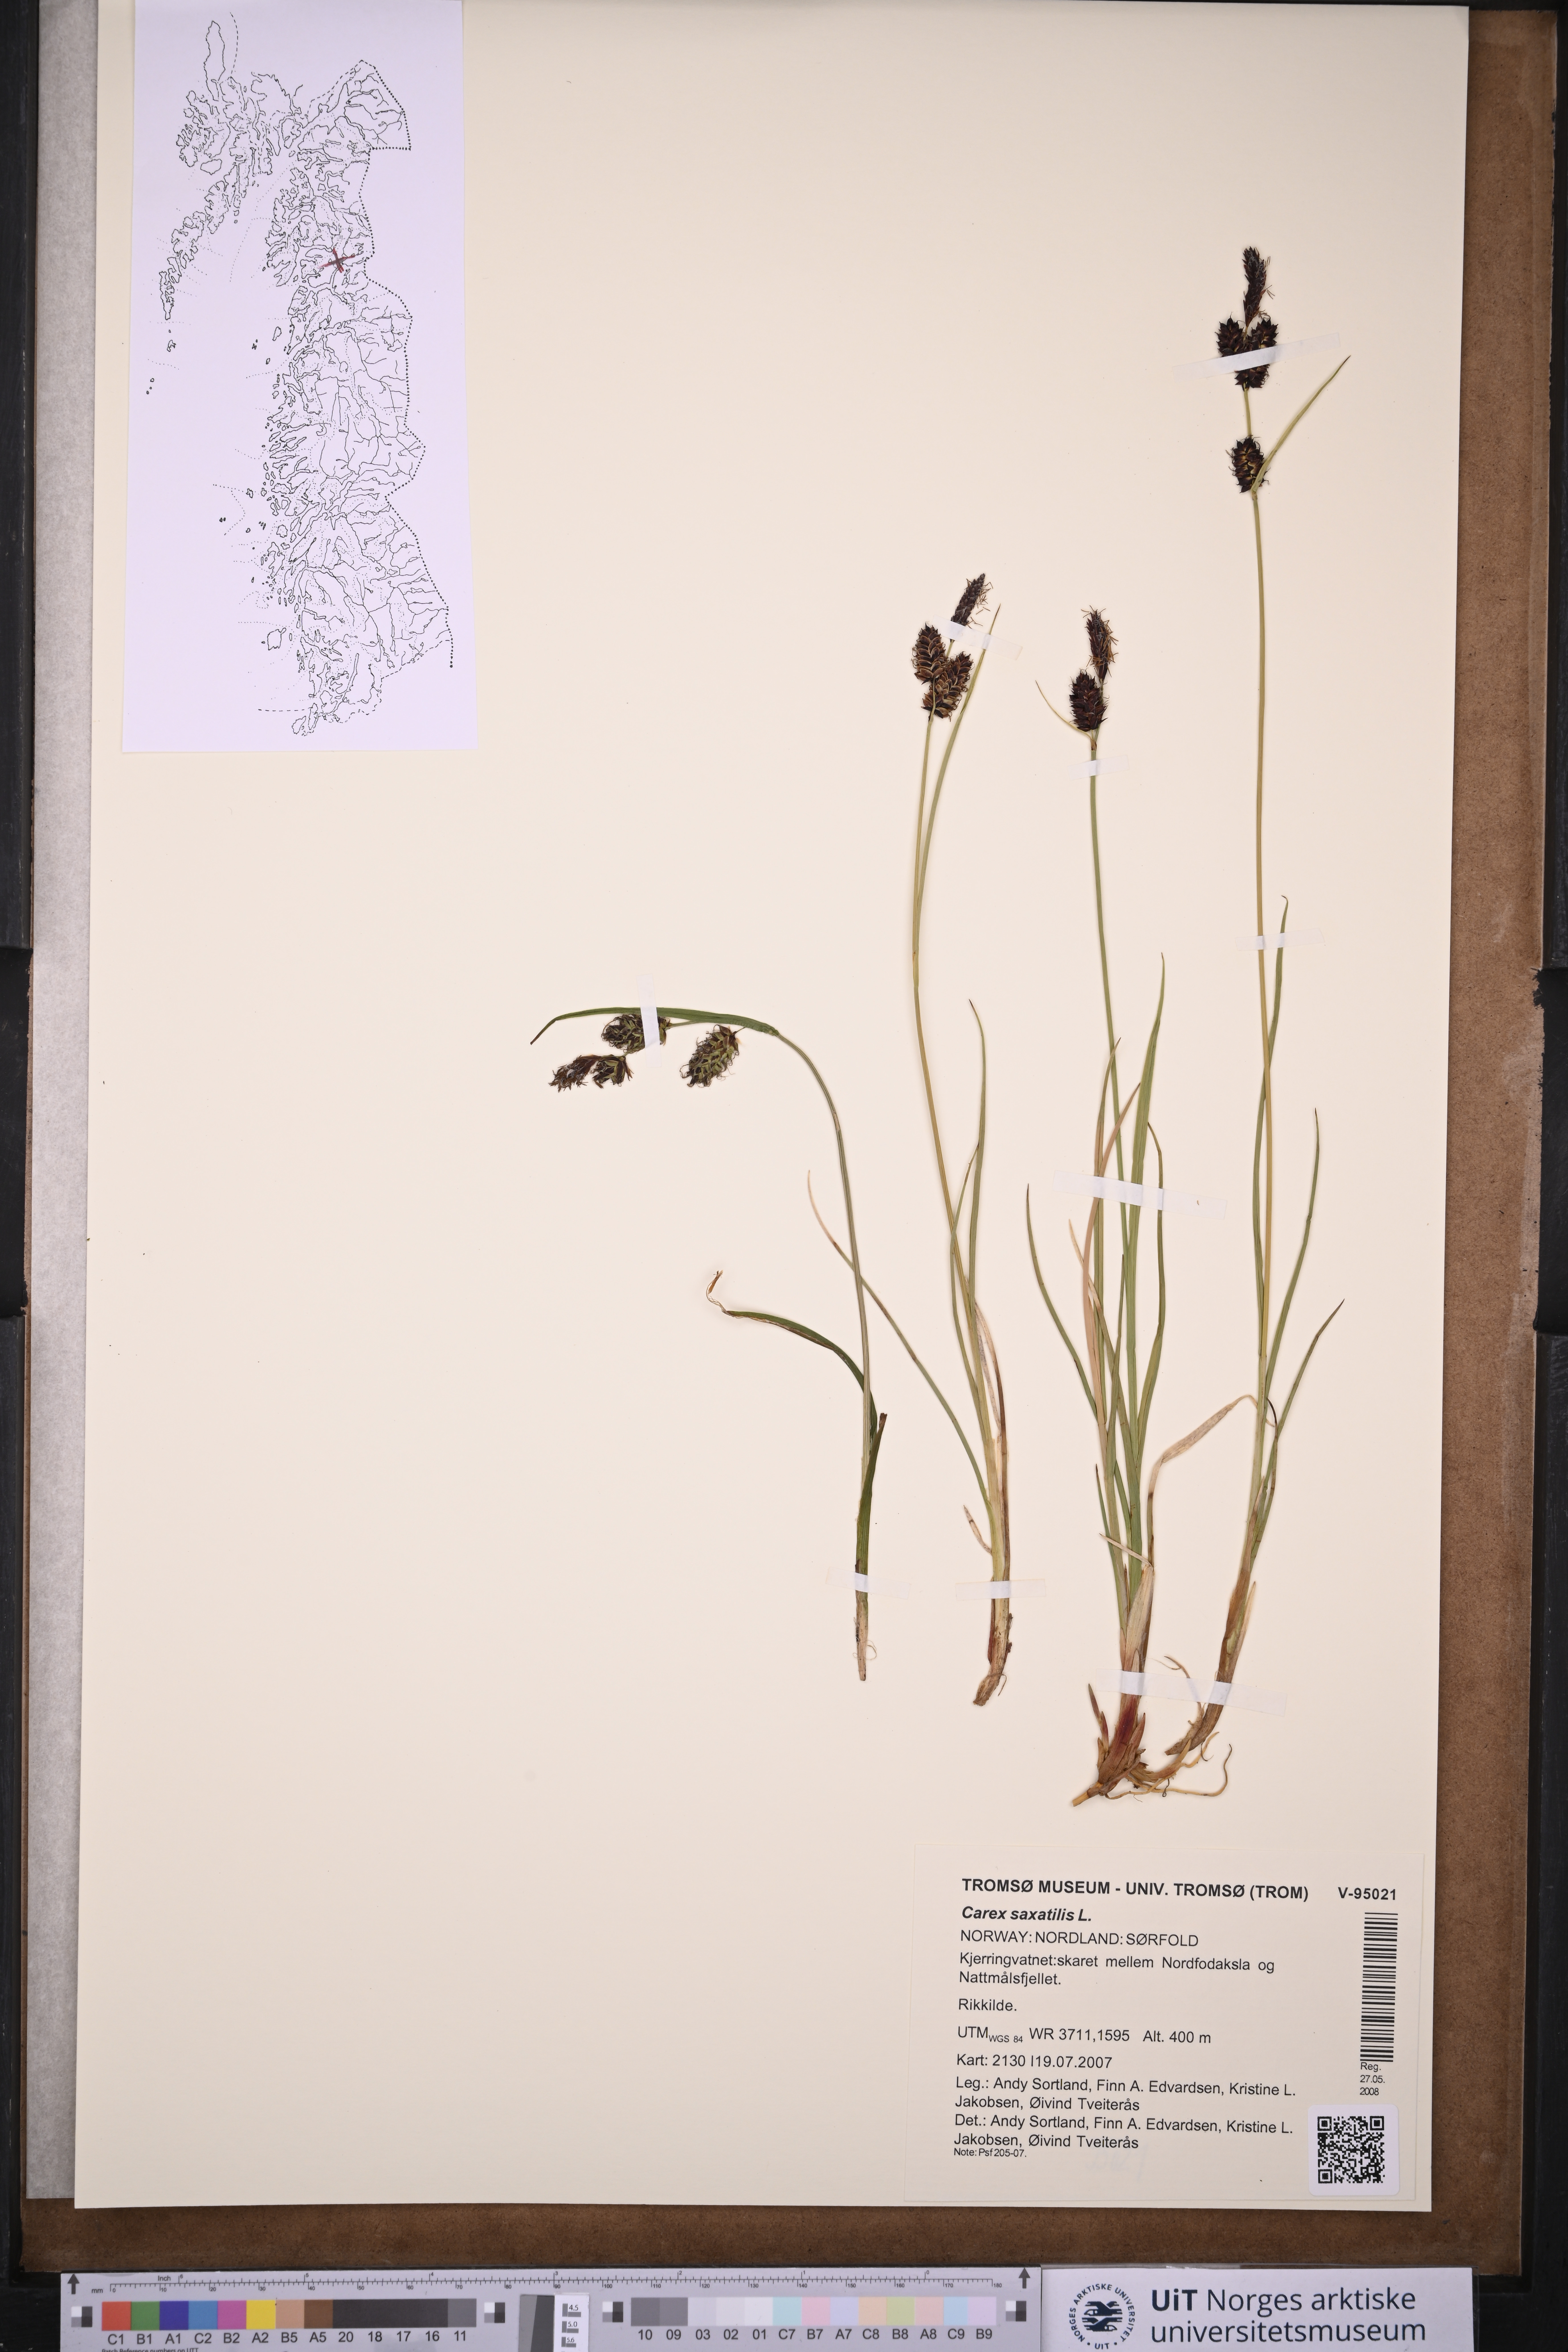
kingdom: Plantae
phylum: Tracheophyta
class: Liliopsida
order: Poales
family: Cyperaceae
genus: Carex
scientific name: Carex saxatilis
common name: Russet sedge
